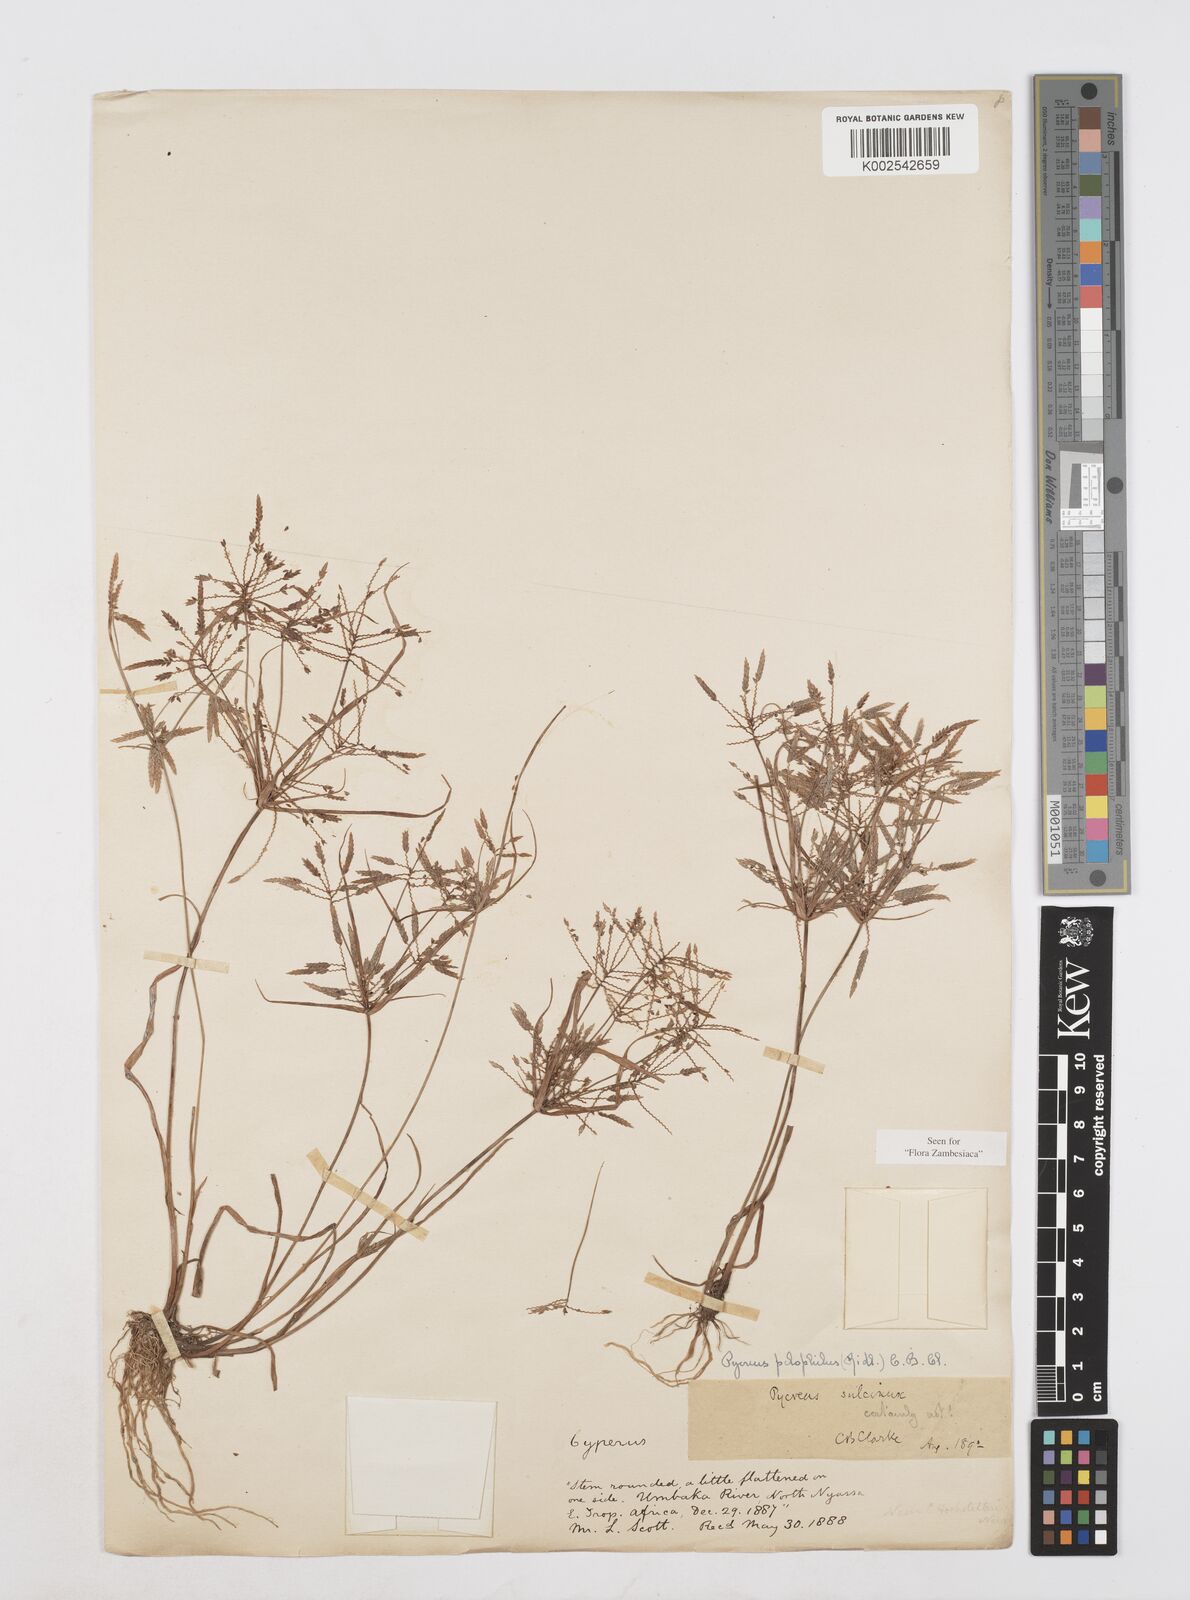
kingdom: Plantae
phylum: Tracheophyta
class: Liliopsida
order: Poales
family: Cyperaceae
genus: Cyperus
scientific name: Cyperus pelophilus
